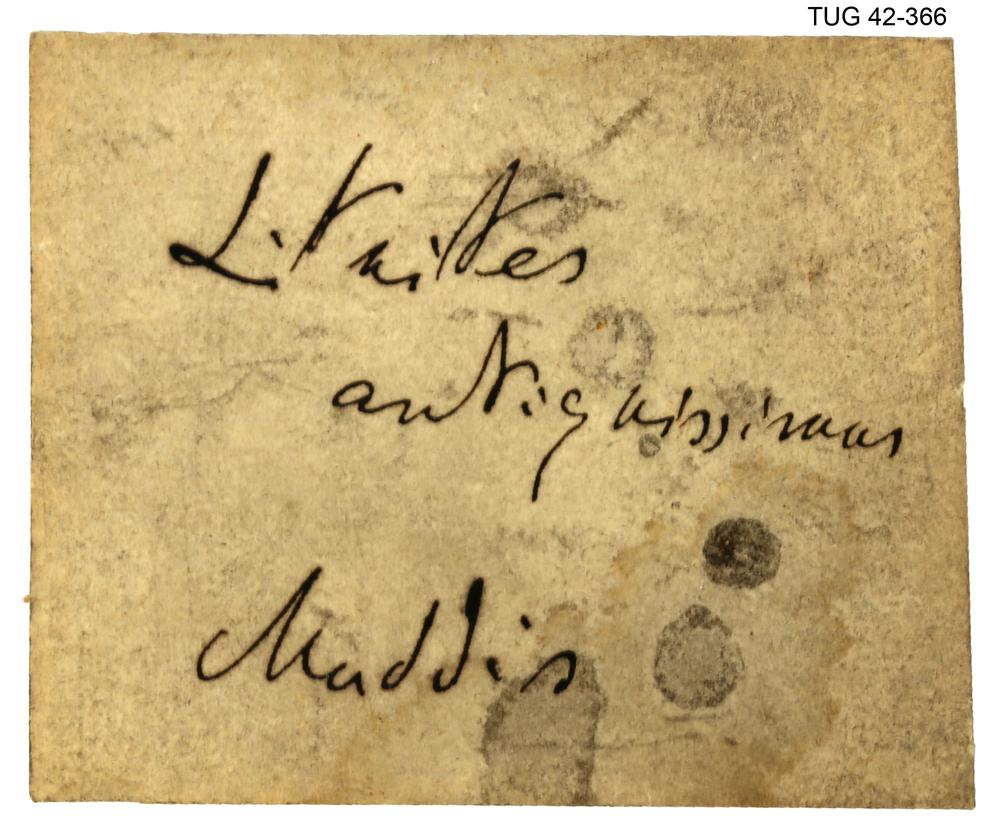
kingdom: Animalia
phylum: Mollusca
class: Cephalopoda
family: Trocholitidae
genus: Discoceras
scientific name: Discoceras Clymenia antiquissima
